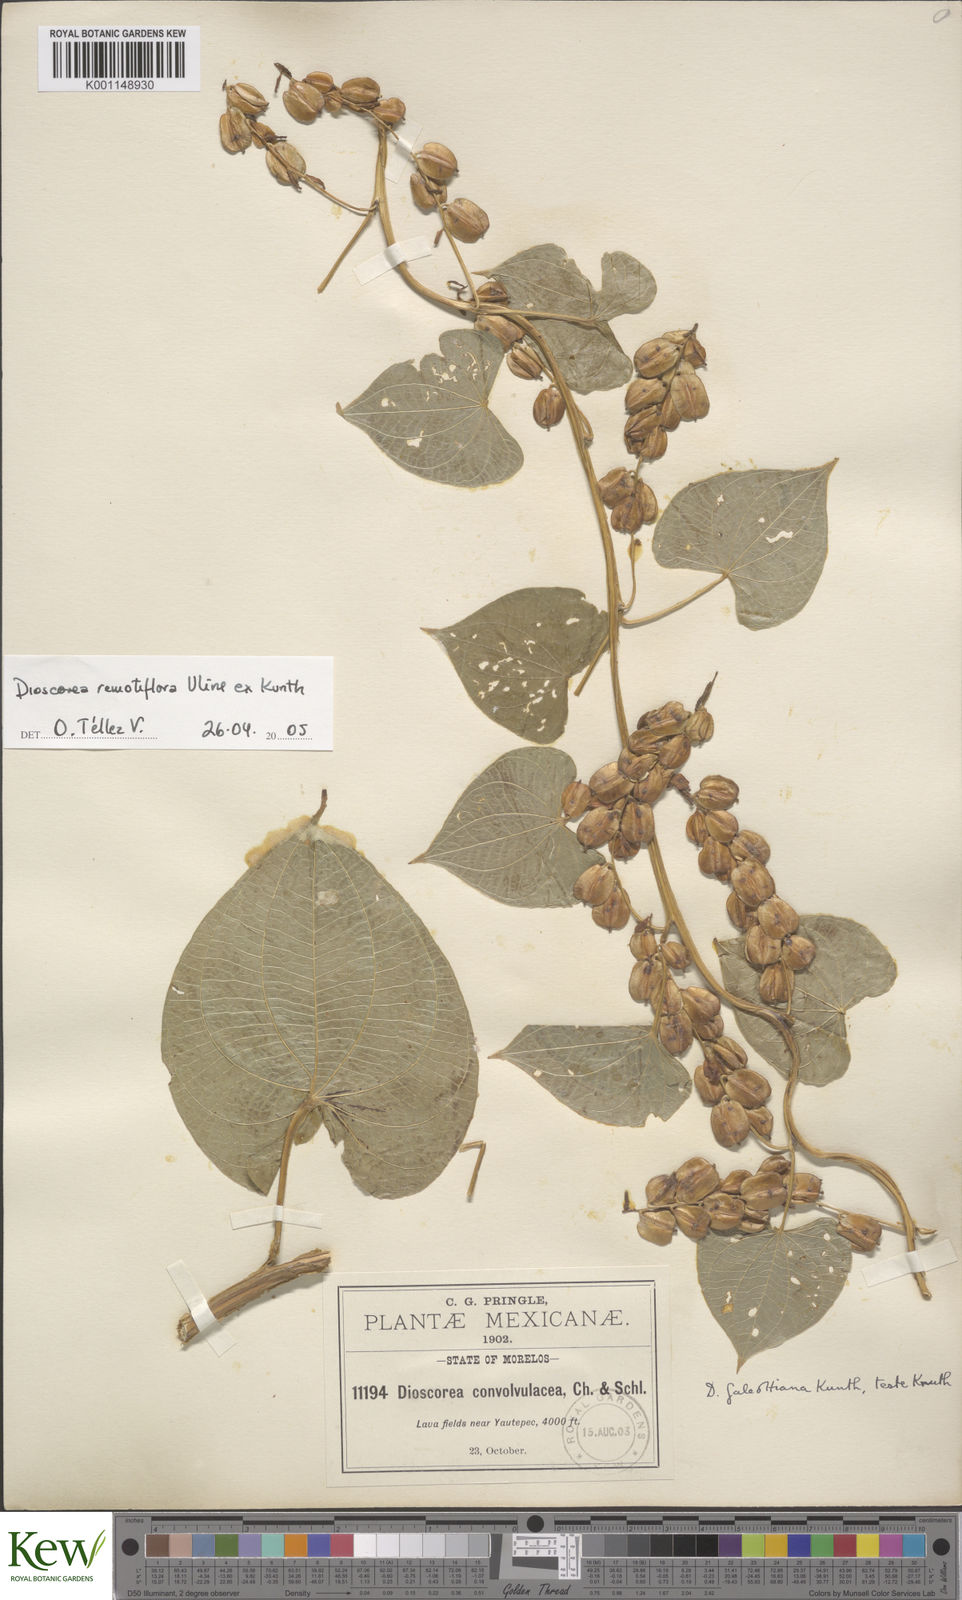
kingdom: Plantae
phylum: Tracheophyta
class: Liliopsida
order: Dioscoreales
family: Dioscoreaceae
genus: Dioscorea
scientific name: Dioscorea remotiflora
